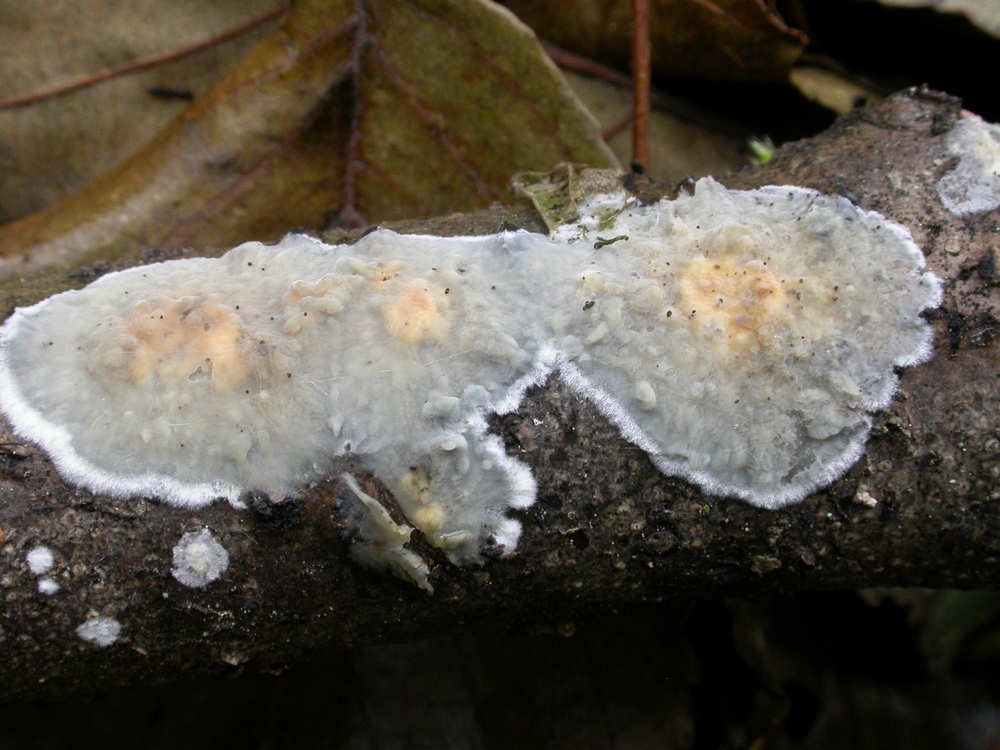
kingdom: Fungi
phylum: Basidiomycota
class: Agaricomycetes
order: Agaricales
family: Radulomycetaceae
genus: Radulomyces
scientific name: Radulomyces confluens
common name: glat naftalinskind
